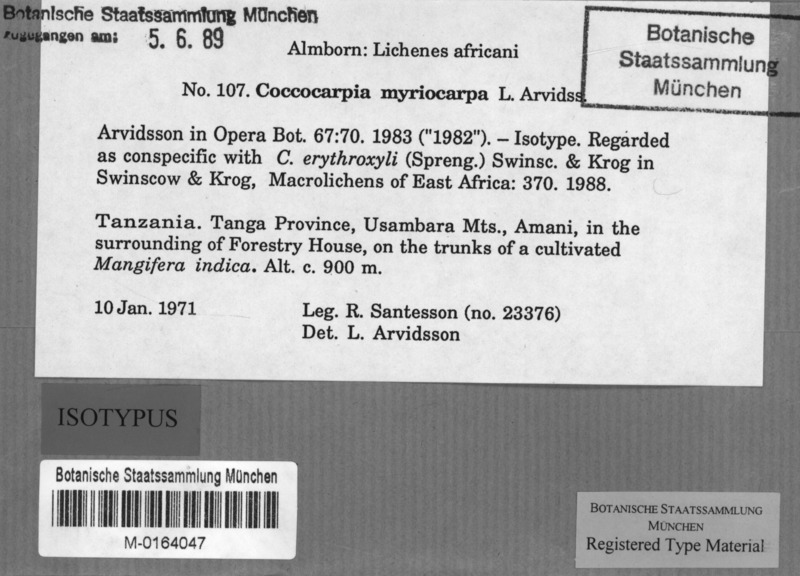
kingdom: Fungi
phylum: Ascomycota
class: Lecanoromycetes
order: Peltigerales
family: Coccocarpiaceae
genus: Coccocarpia
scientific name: Coccocarpia erythroxyli
